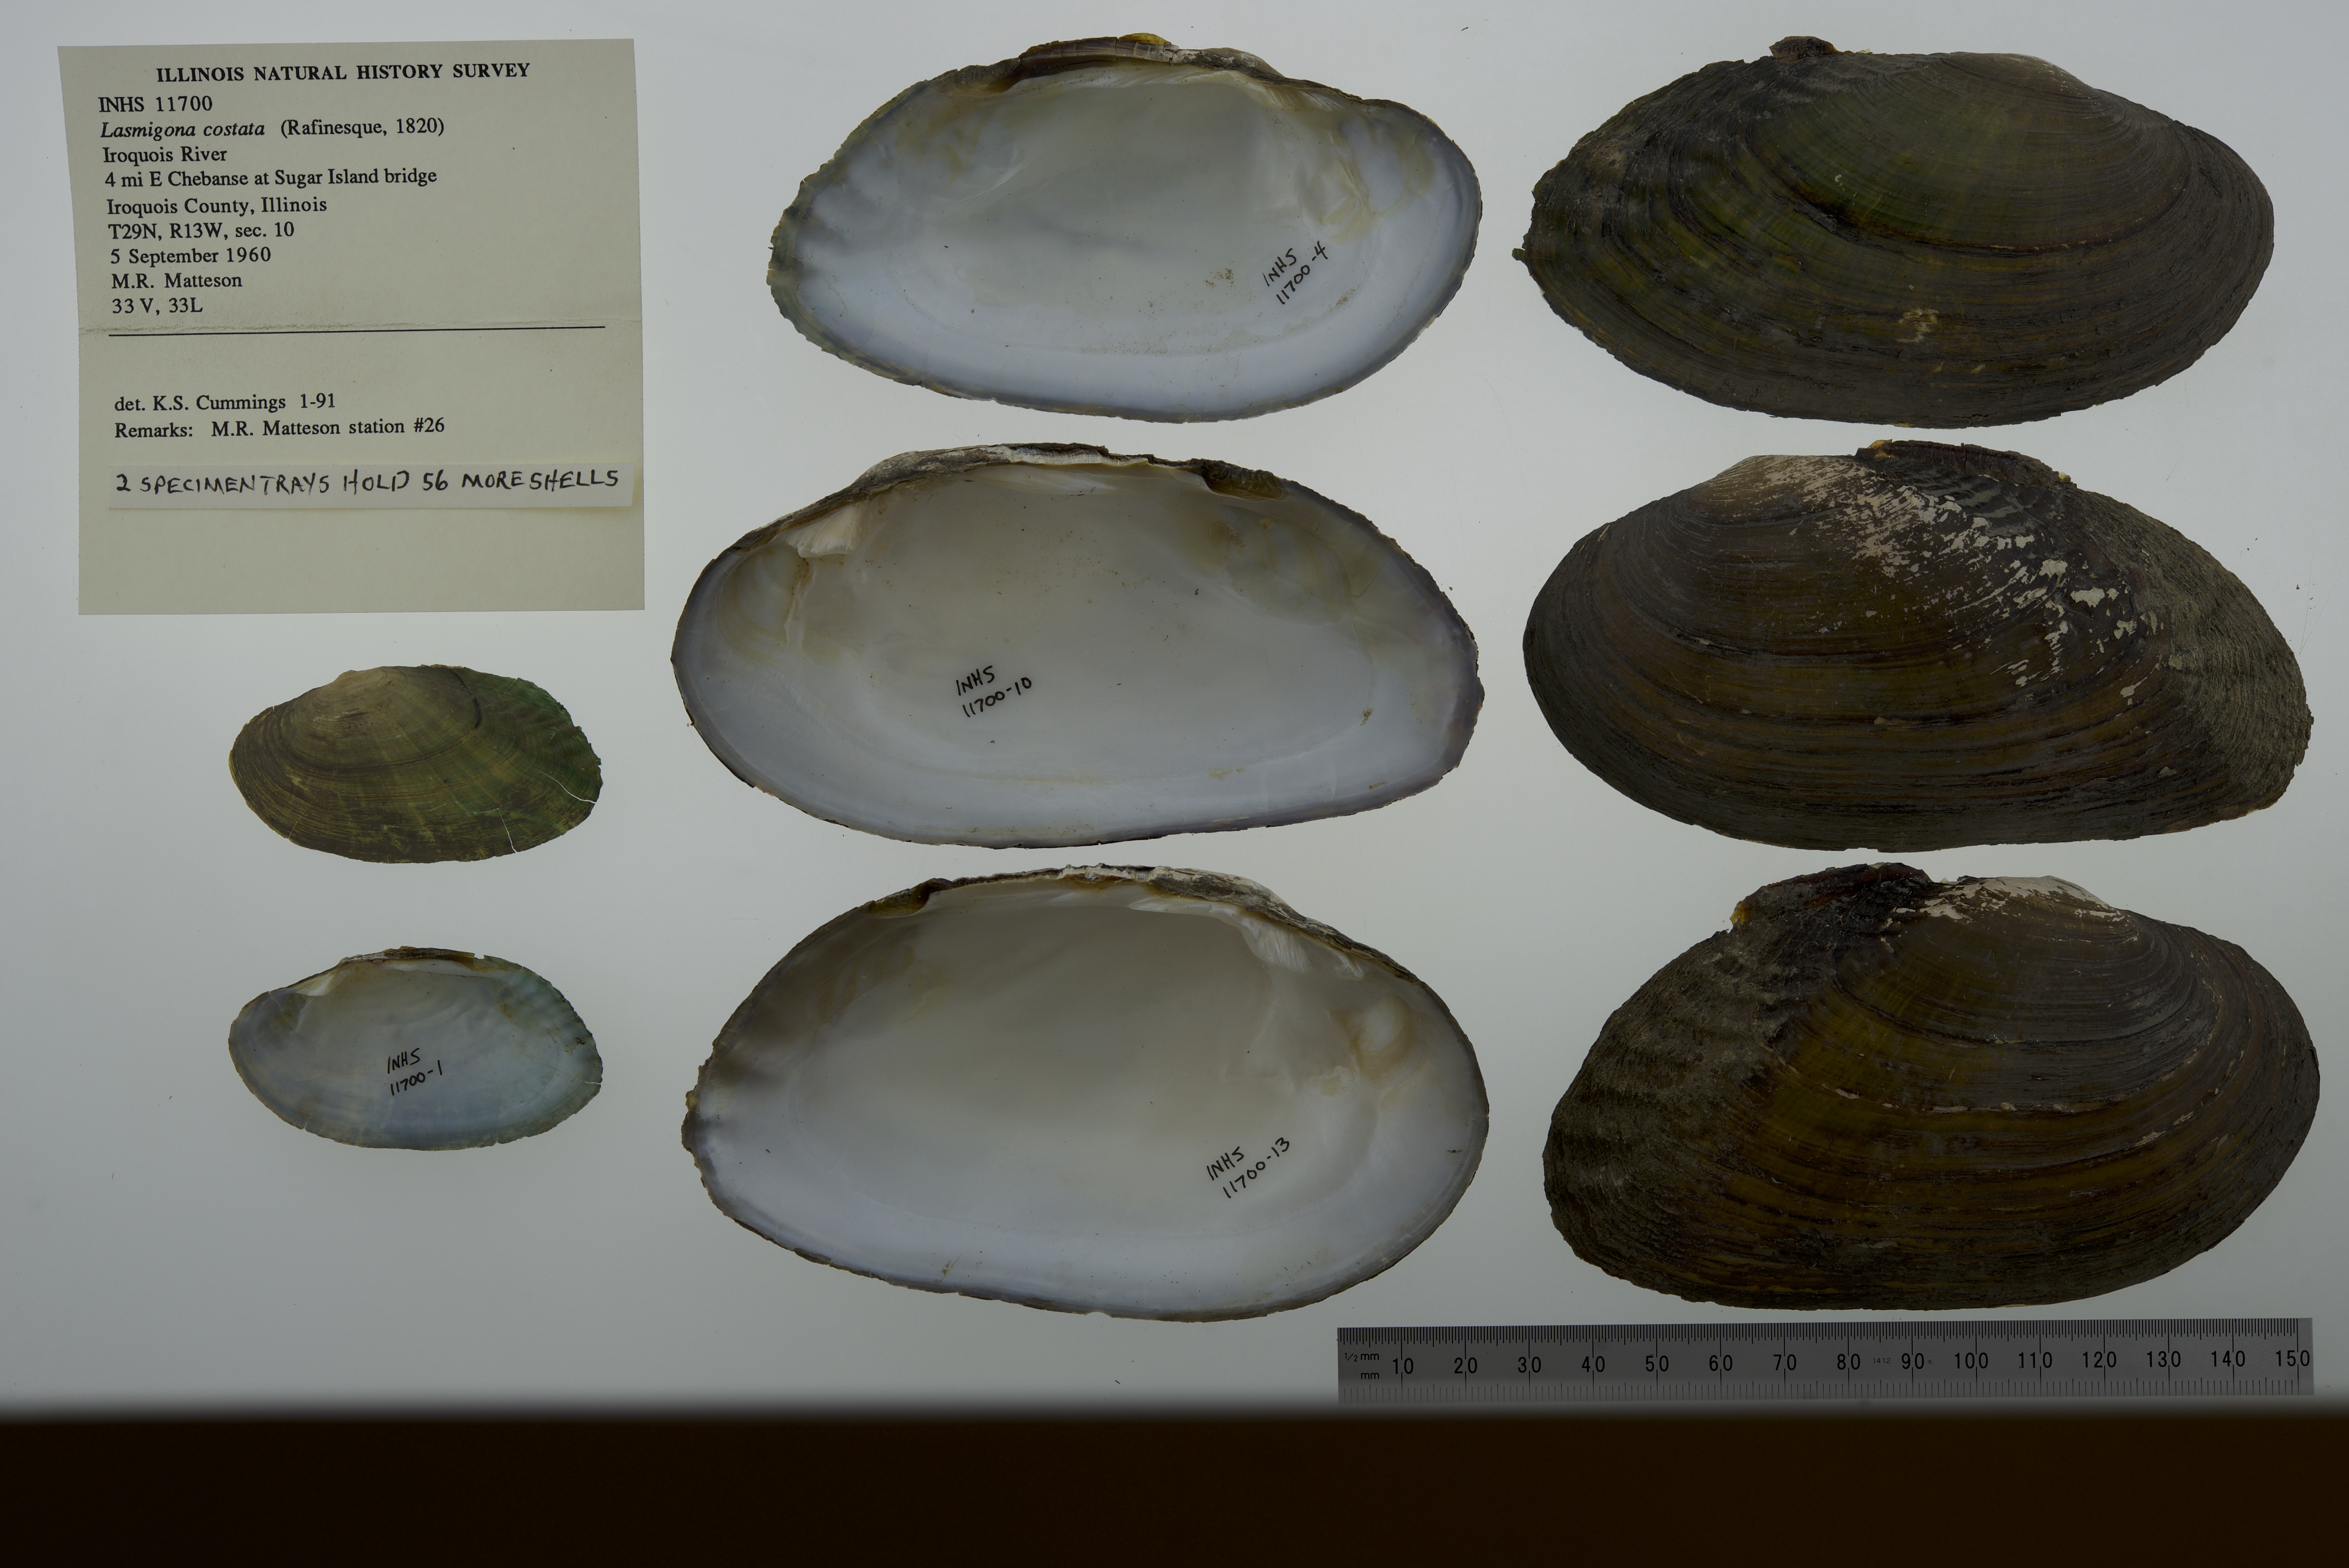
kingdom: Animalia
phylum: Mollusca
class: Bivalvia
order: Unionida
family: Unionidae
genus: Lasmigona
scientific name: Lasmigona costata
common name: Flutedshell
